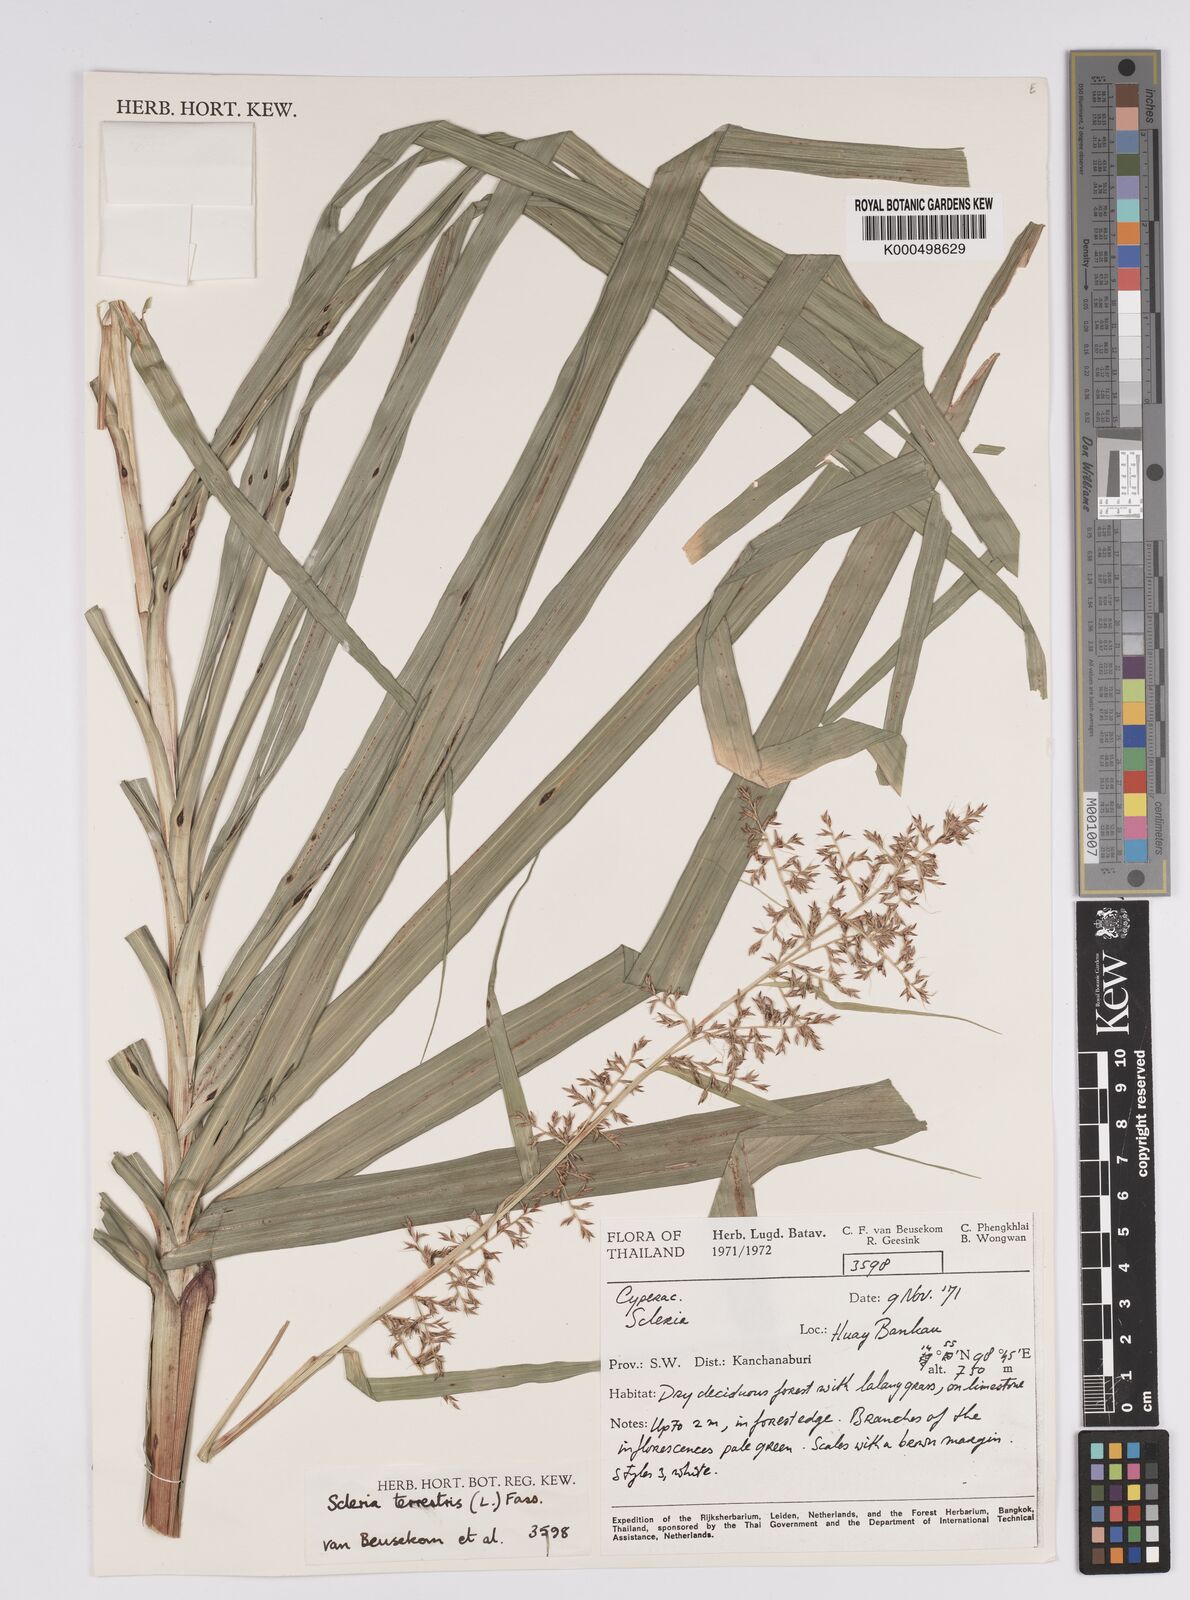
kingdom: Plantae
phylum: Tracheophyta
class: Liliopsida
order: Poales
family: Cyperaceae
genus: Scleria
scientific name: Scleria terrestris
